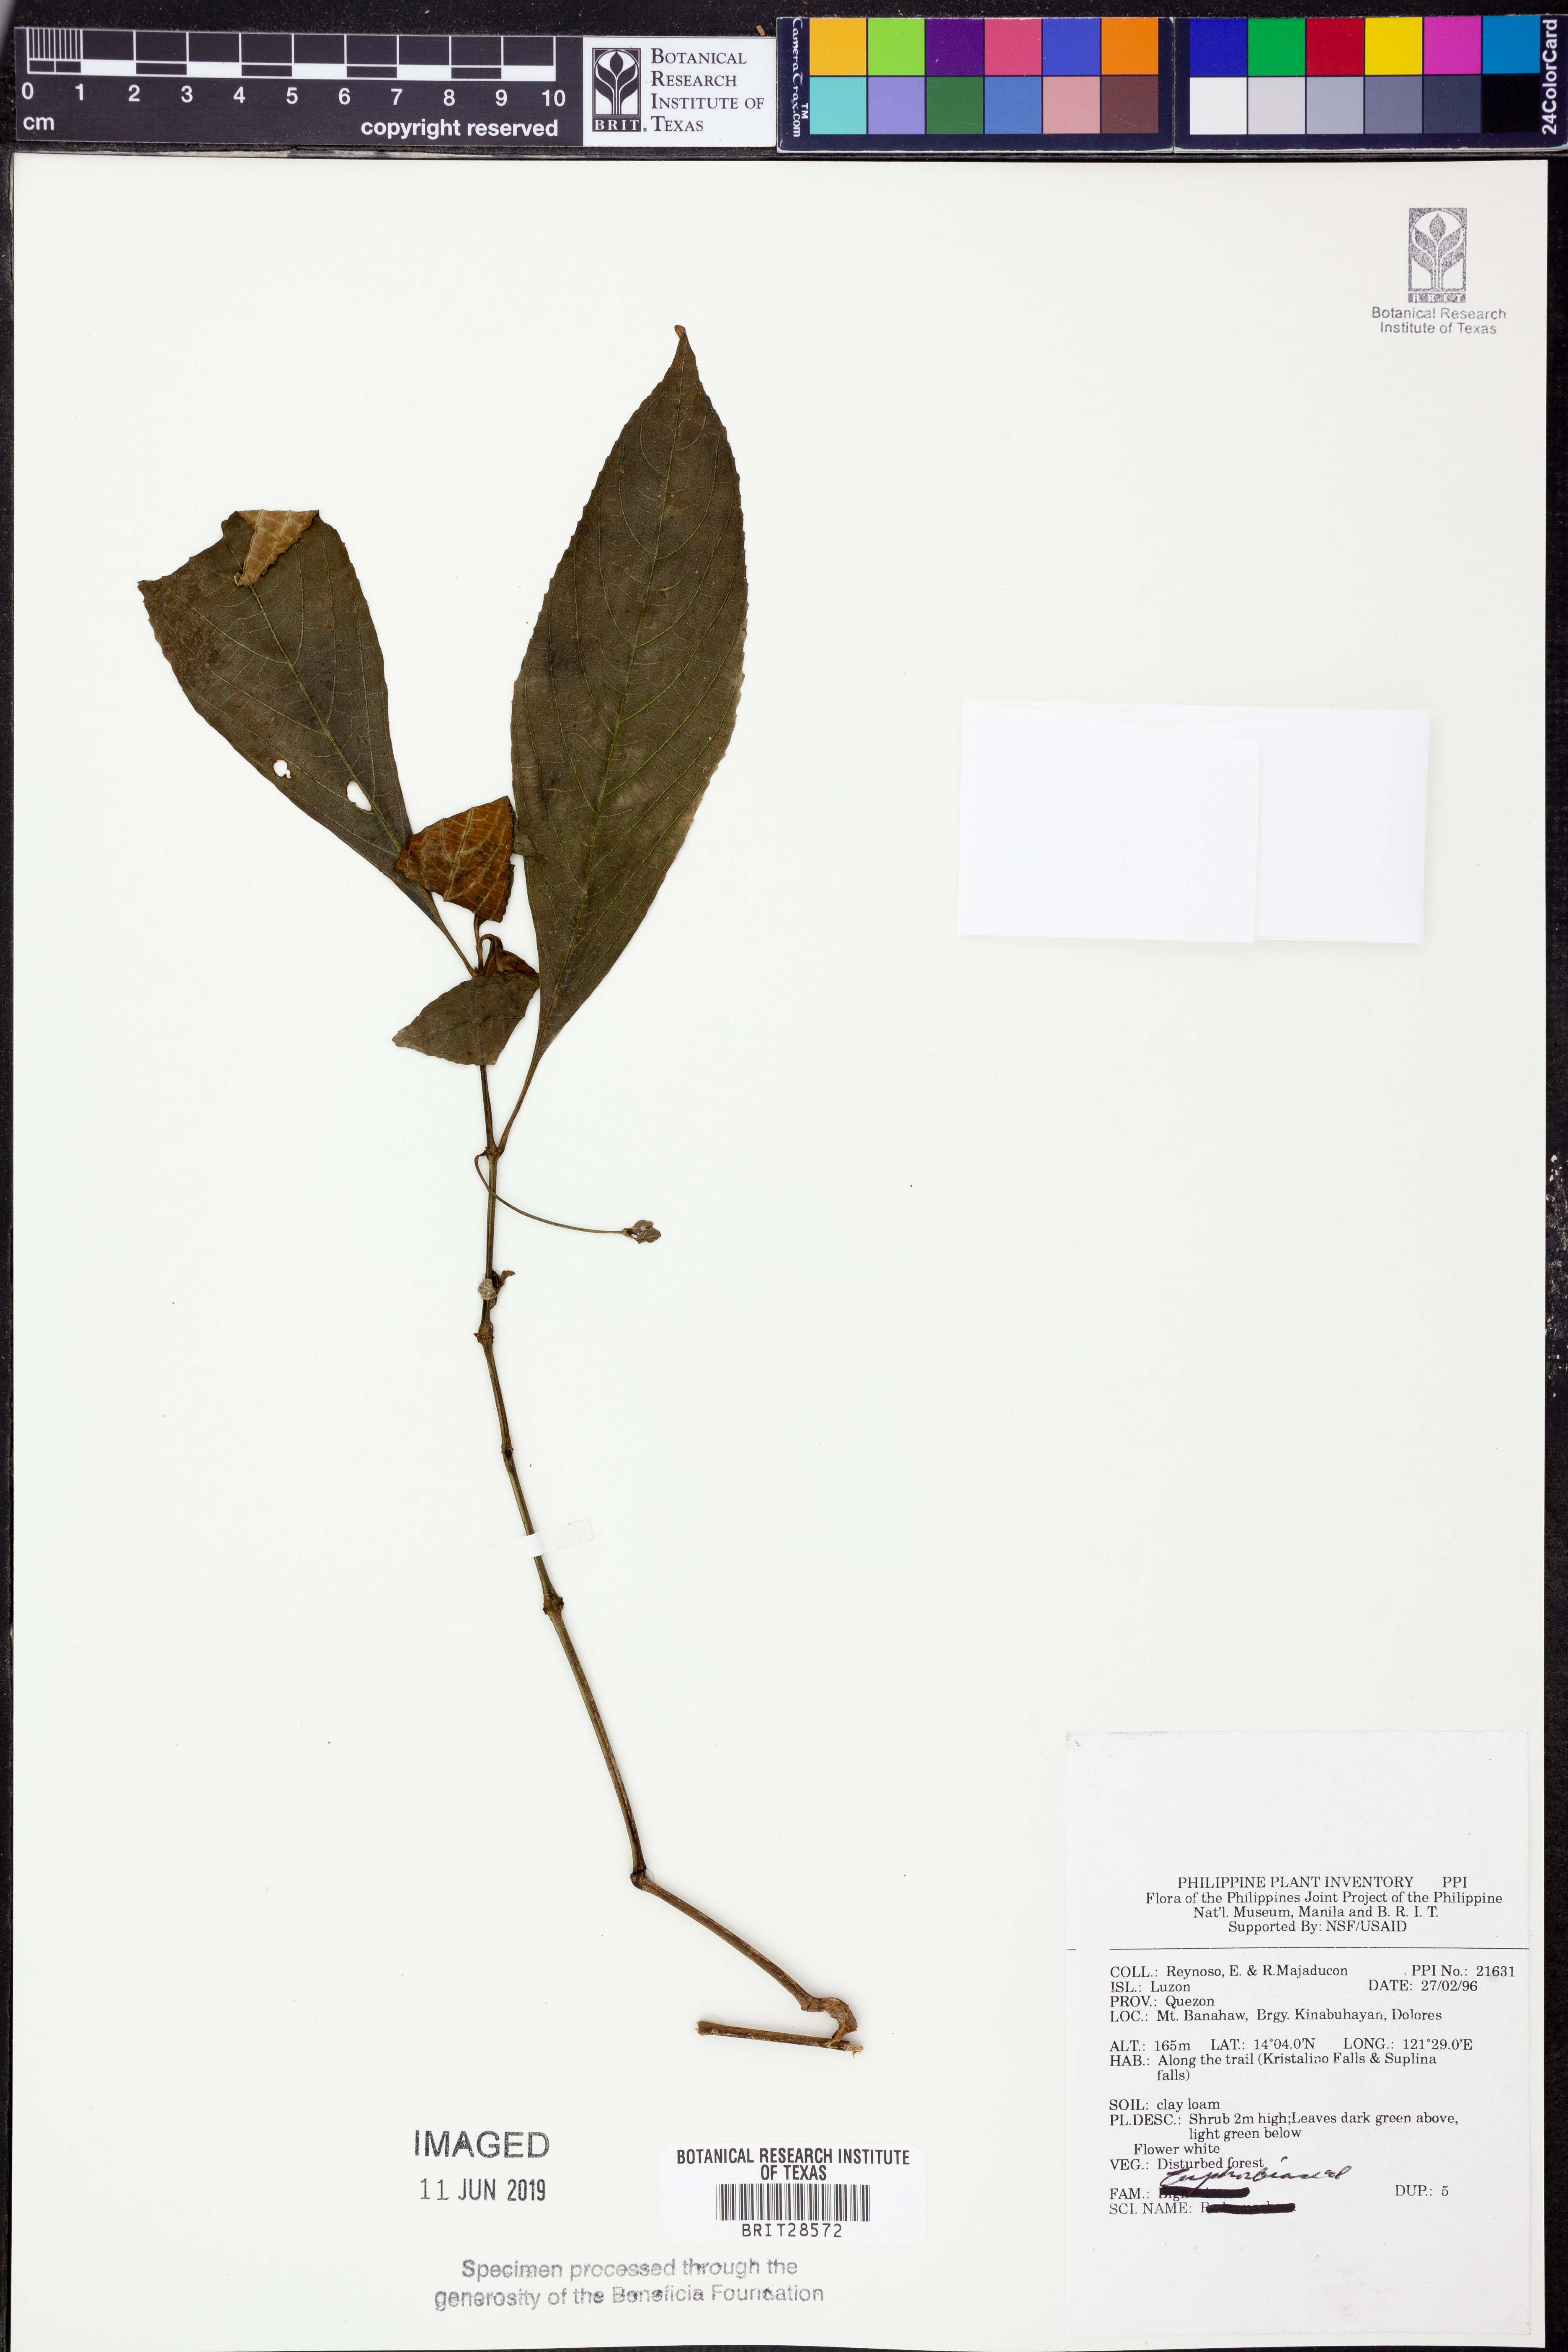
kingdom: Plantae
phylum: Tracheophyta
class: Magnoliopsida
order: Malpighiales
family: Euphorbiaceae
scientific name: Euphorbiaceae
